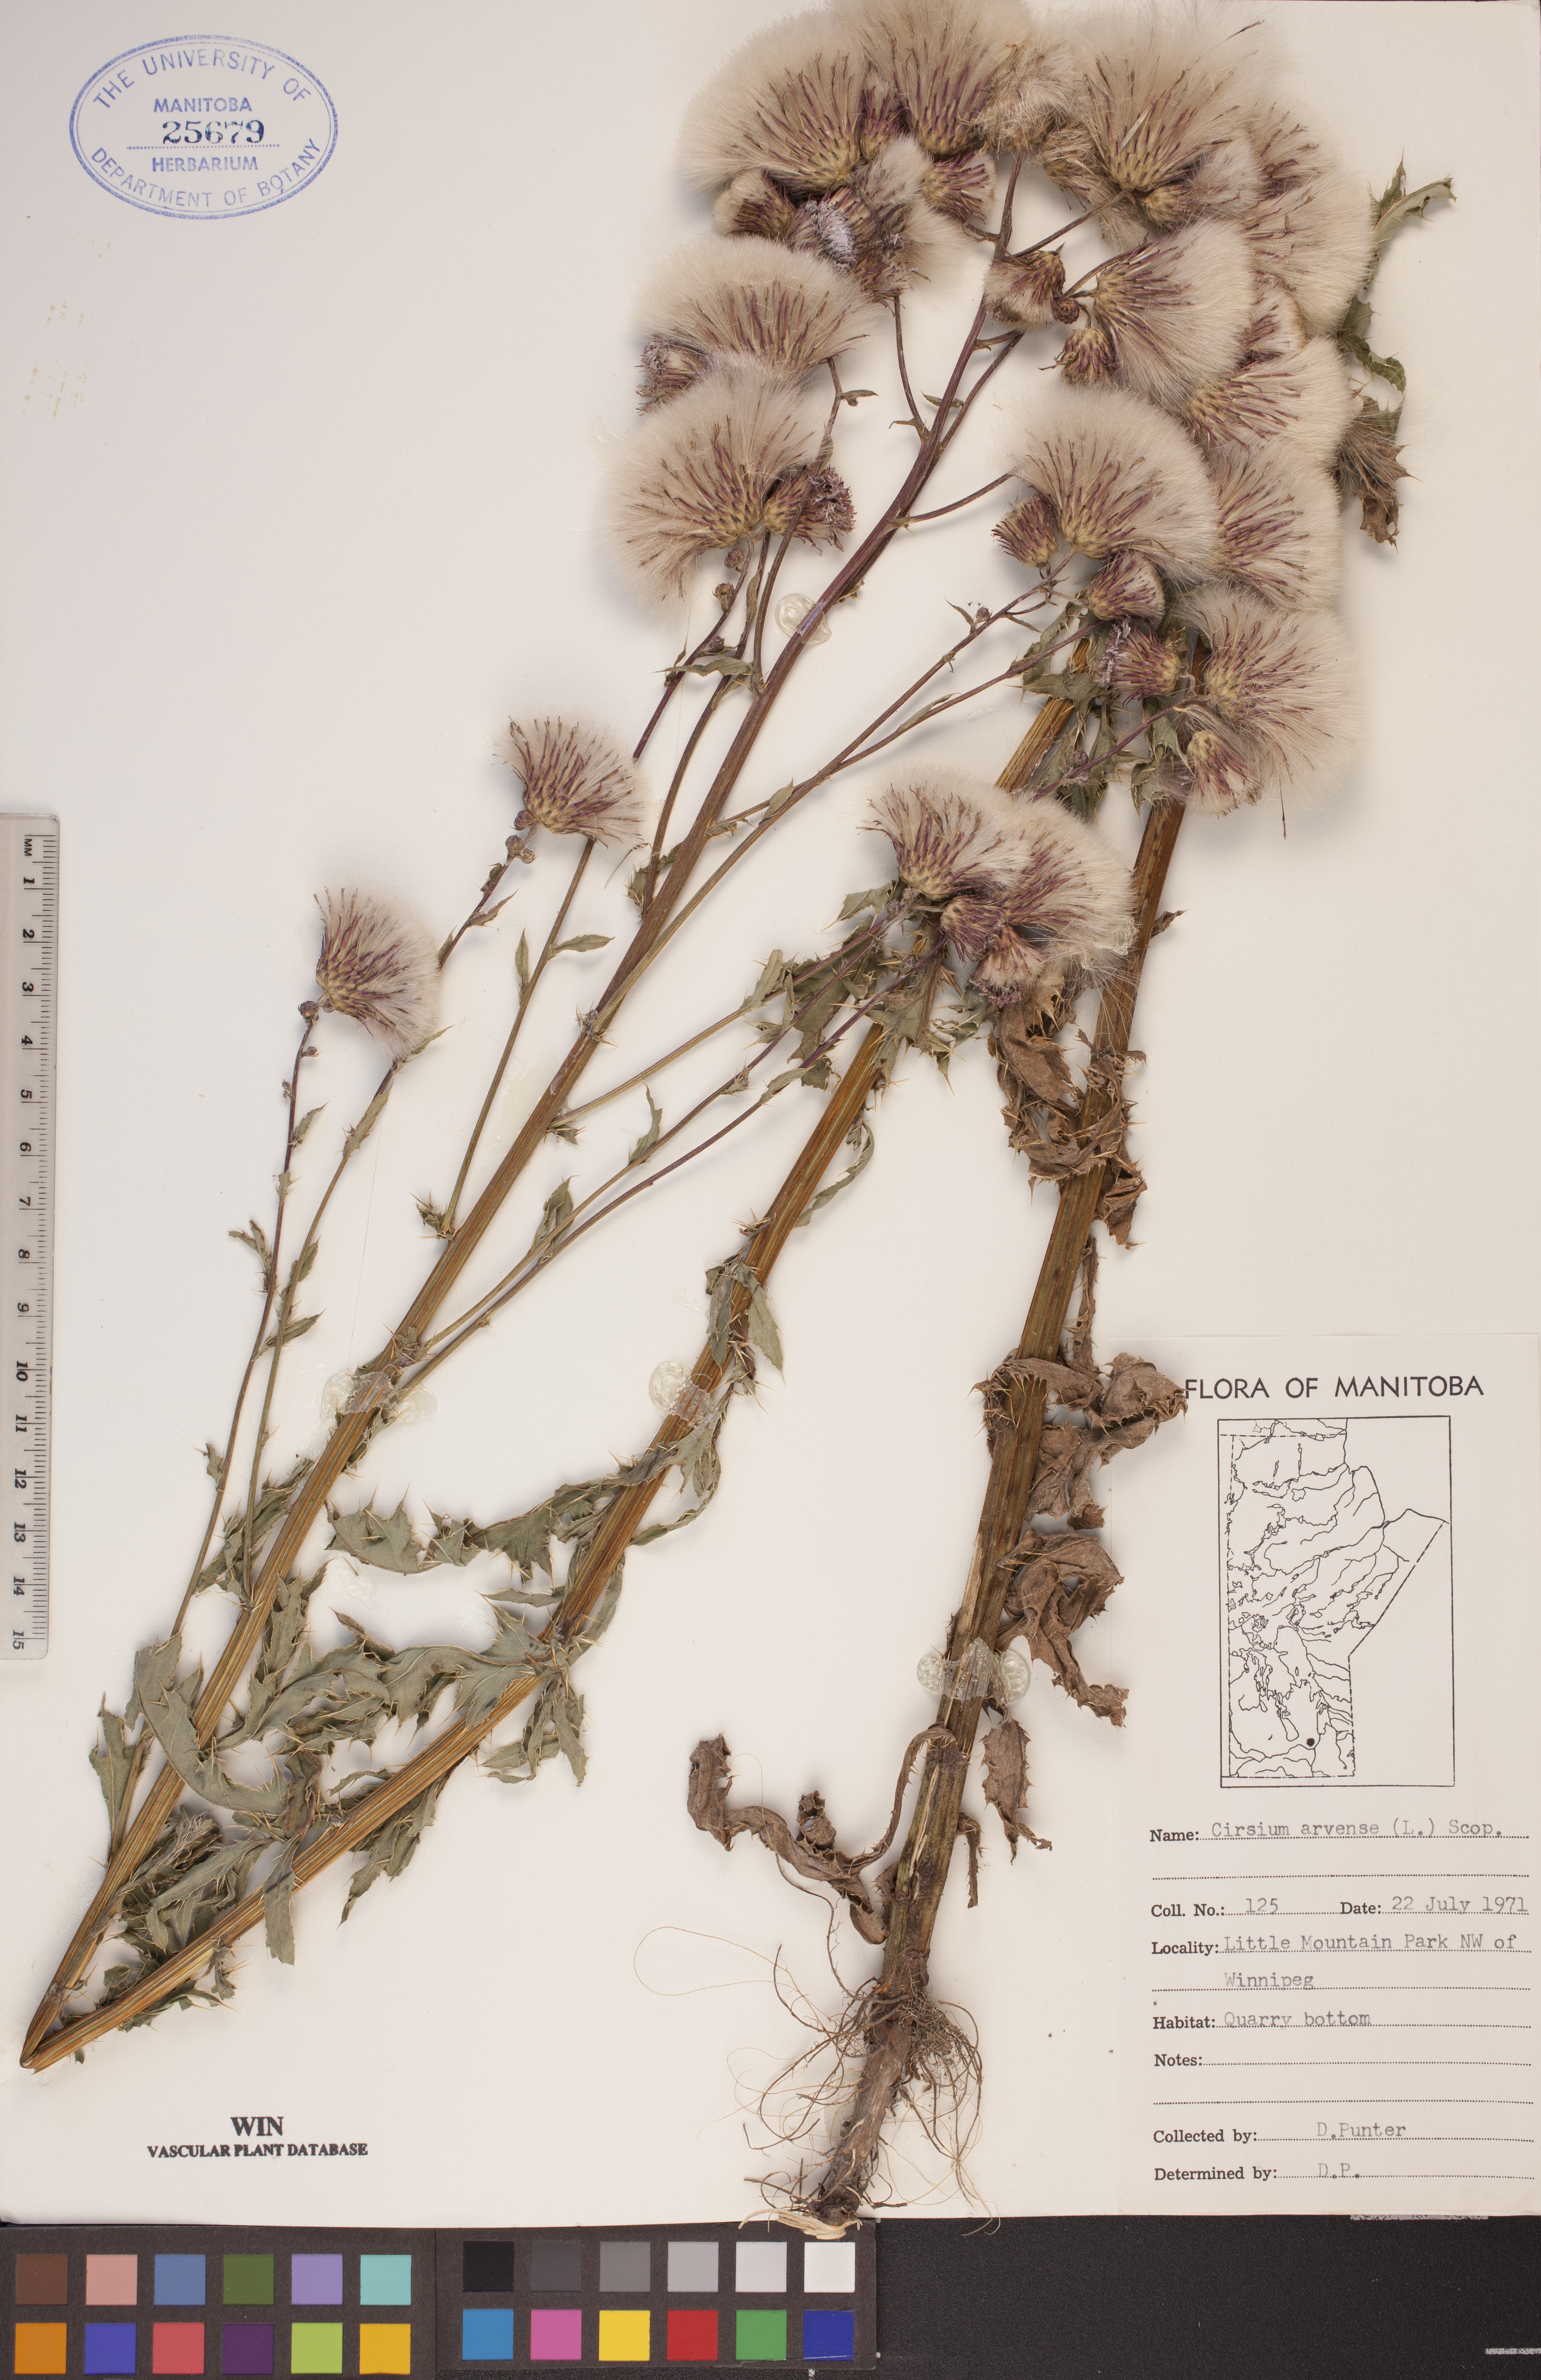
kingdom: Plantae
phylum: Tracheophyta
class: Magnoliopsida
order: Asterales
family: Asteraceae
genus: Cirsium
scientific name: Cirsium arvense
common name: Creeping thistle
